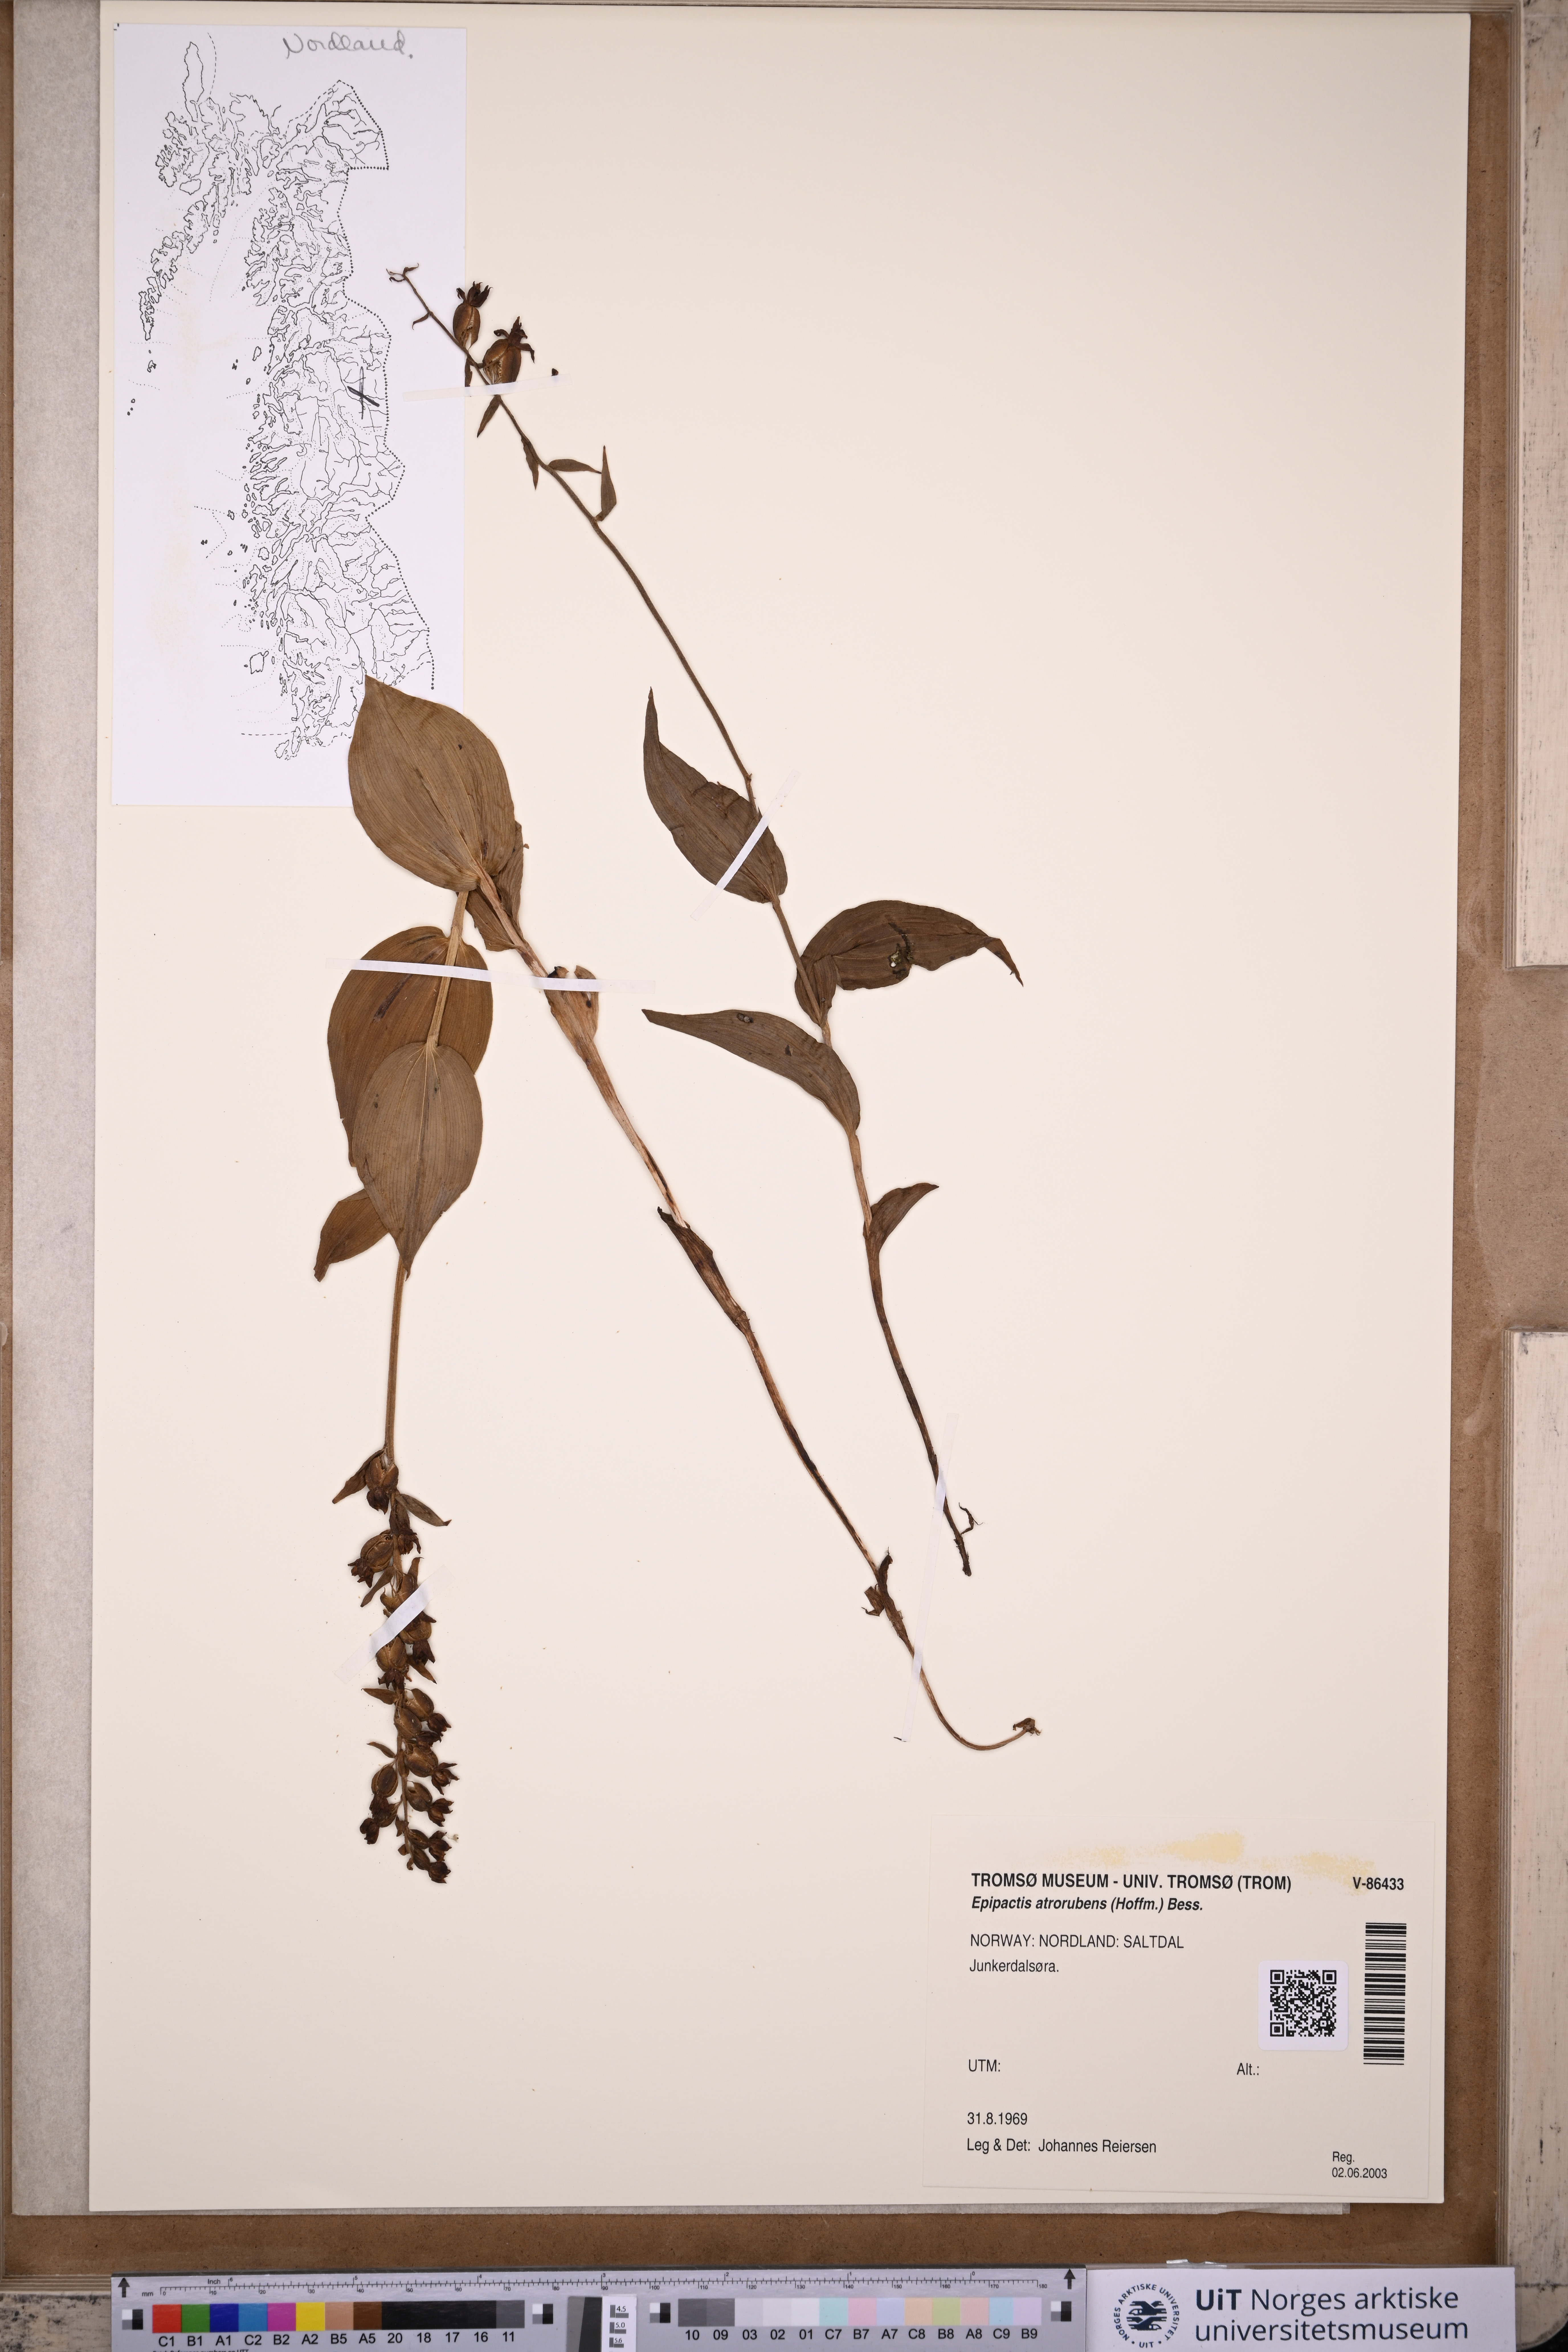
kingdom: Plantae
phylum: Tracheophyta
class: Liliopsida
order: Asparagales
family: Orchidaceae
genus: Epipactis
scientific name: Epipactis atrorubens
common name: Dark-red helleborine
